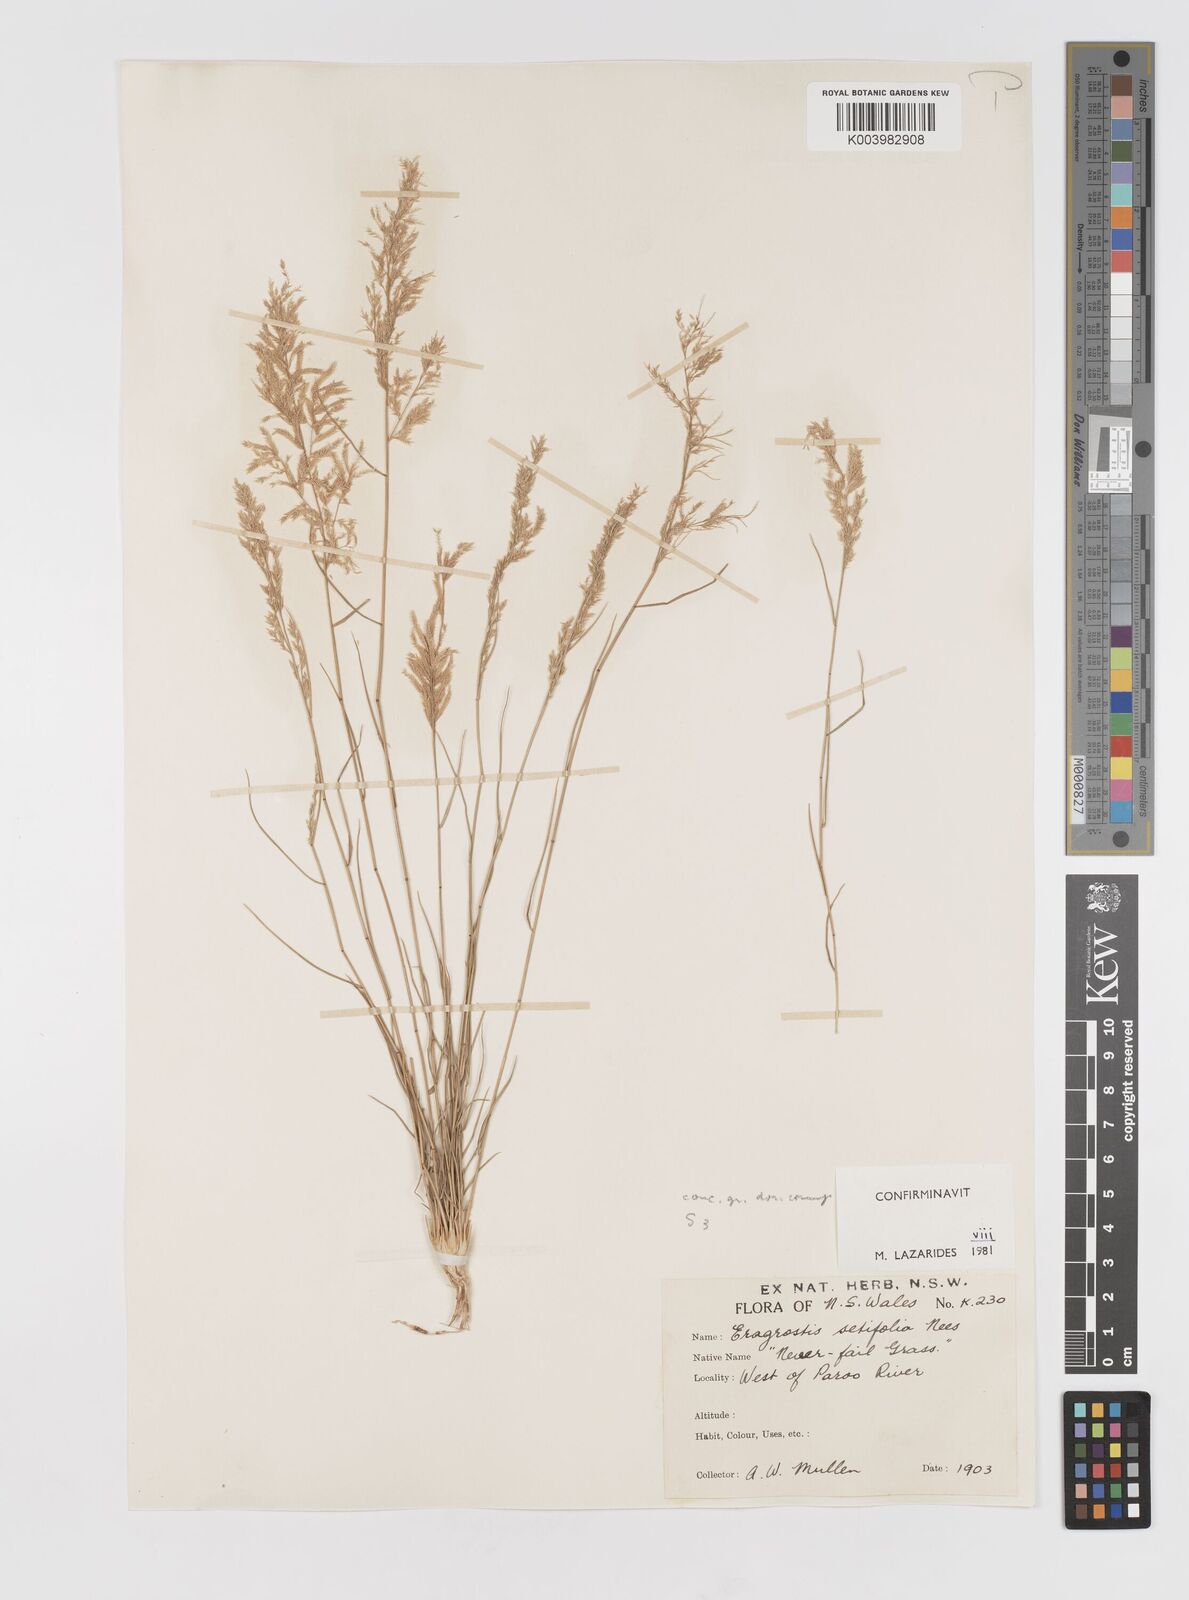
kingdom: Plantae
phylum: Tracheophyta
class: Liliopsida
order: Poales
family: Poaceae
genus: Eragrostis
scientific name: Eragrostis setifolia
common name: Bristleleaf lovegrass
